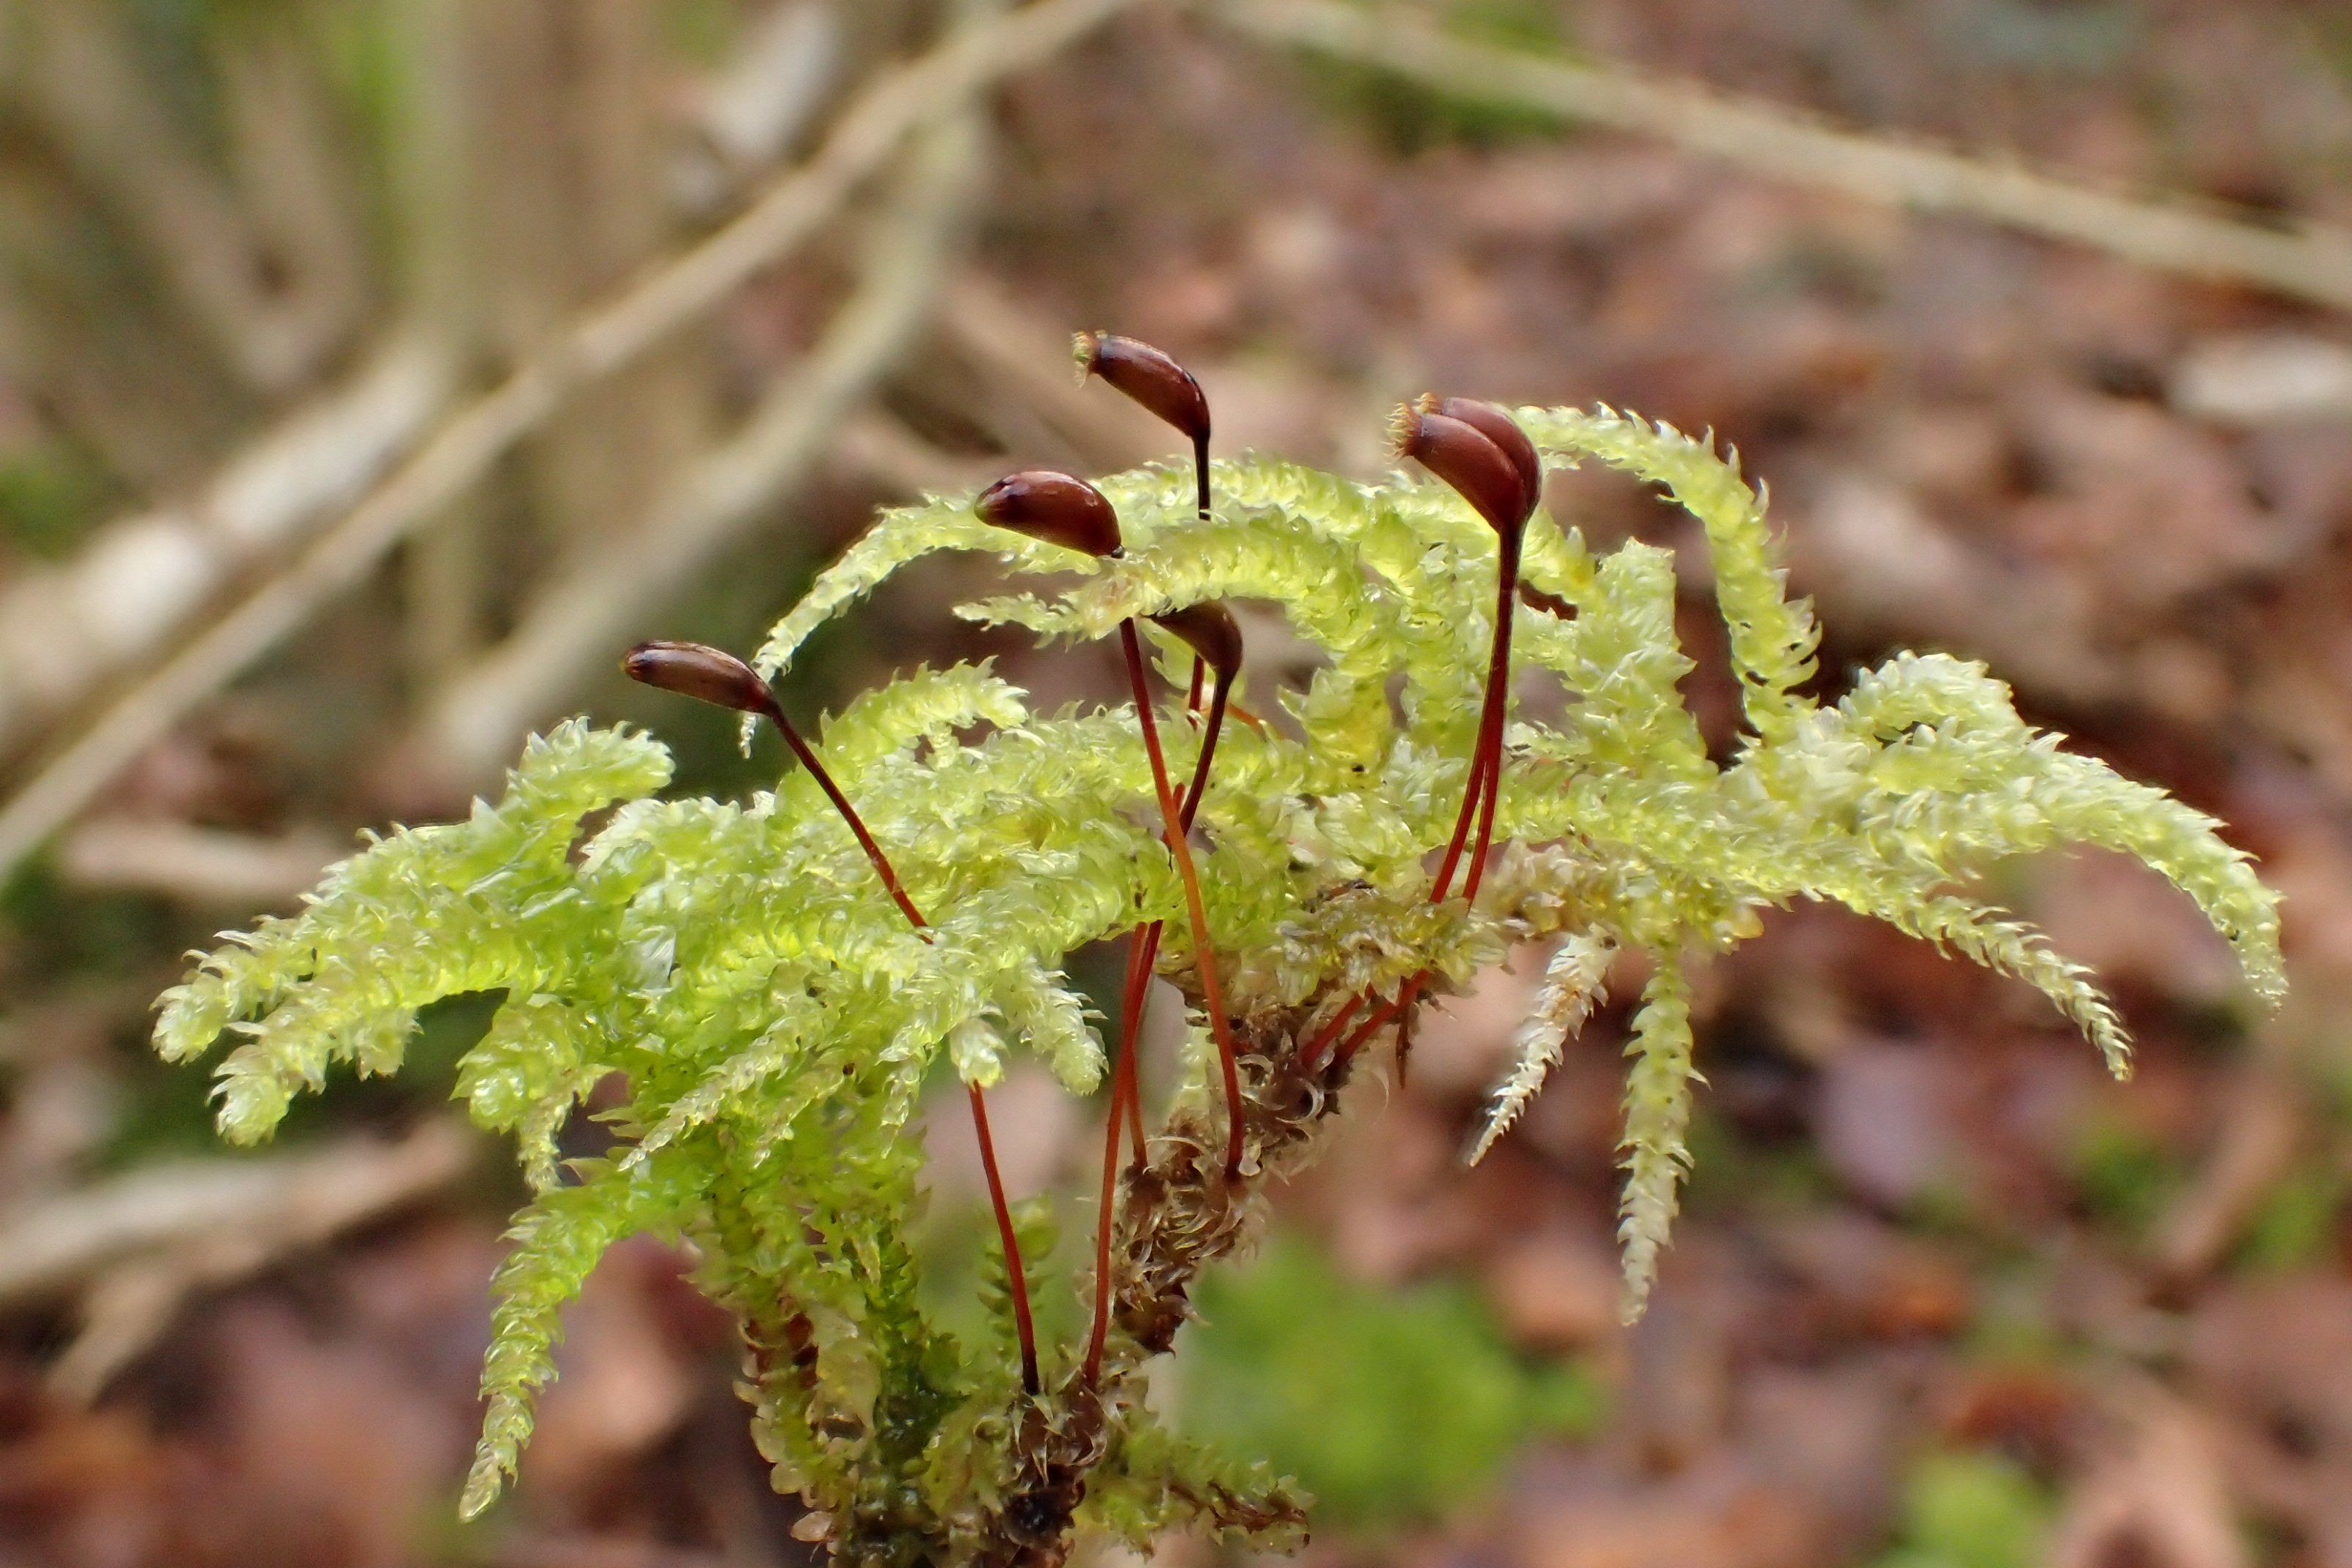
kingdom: Plantae
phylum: Bryophyta
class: Bryopsida
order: Hypnales
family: Brachytheciaceae
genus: Eurhynchium
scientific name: Eurhynchium angustirete
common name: Stor næbmos
